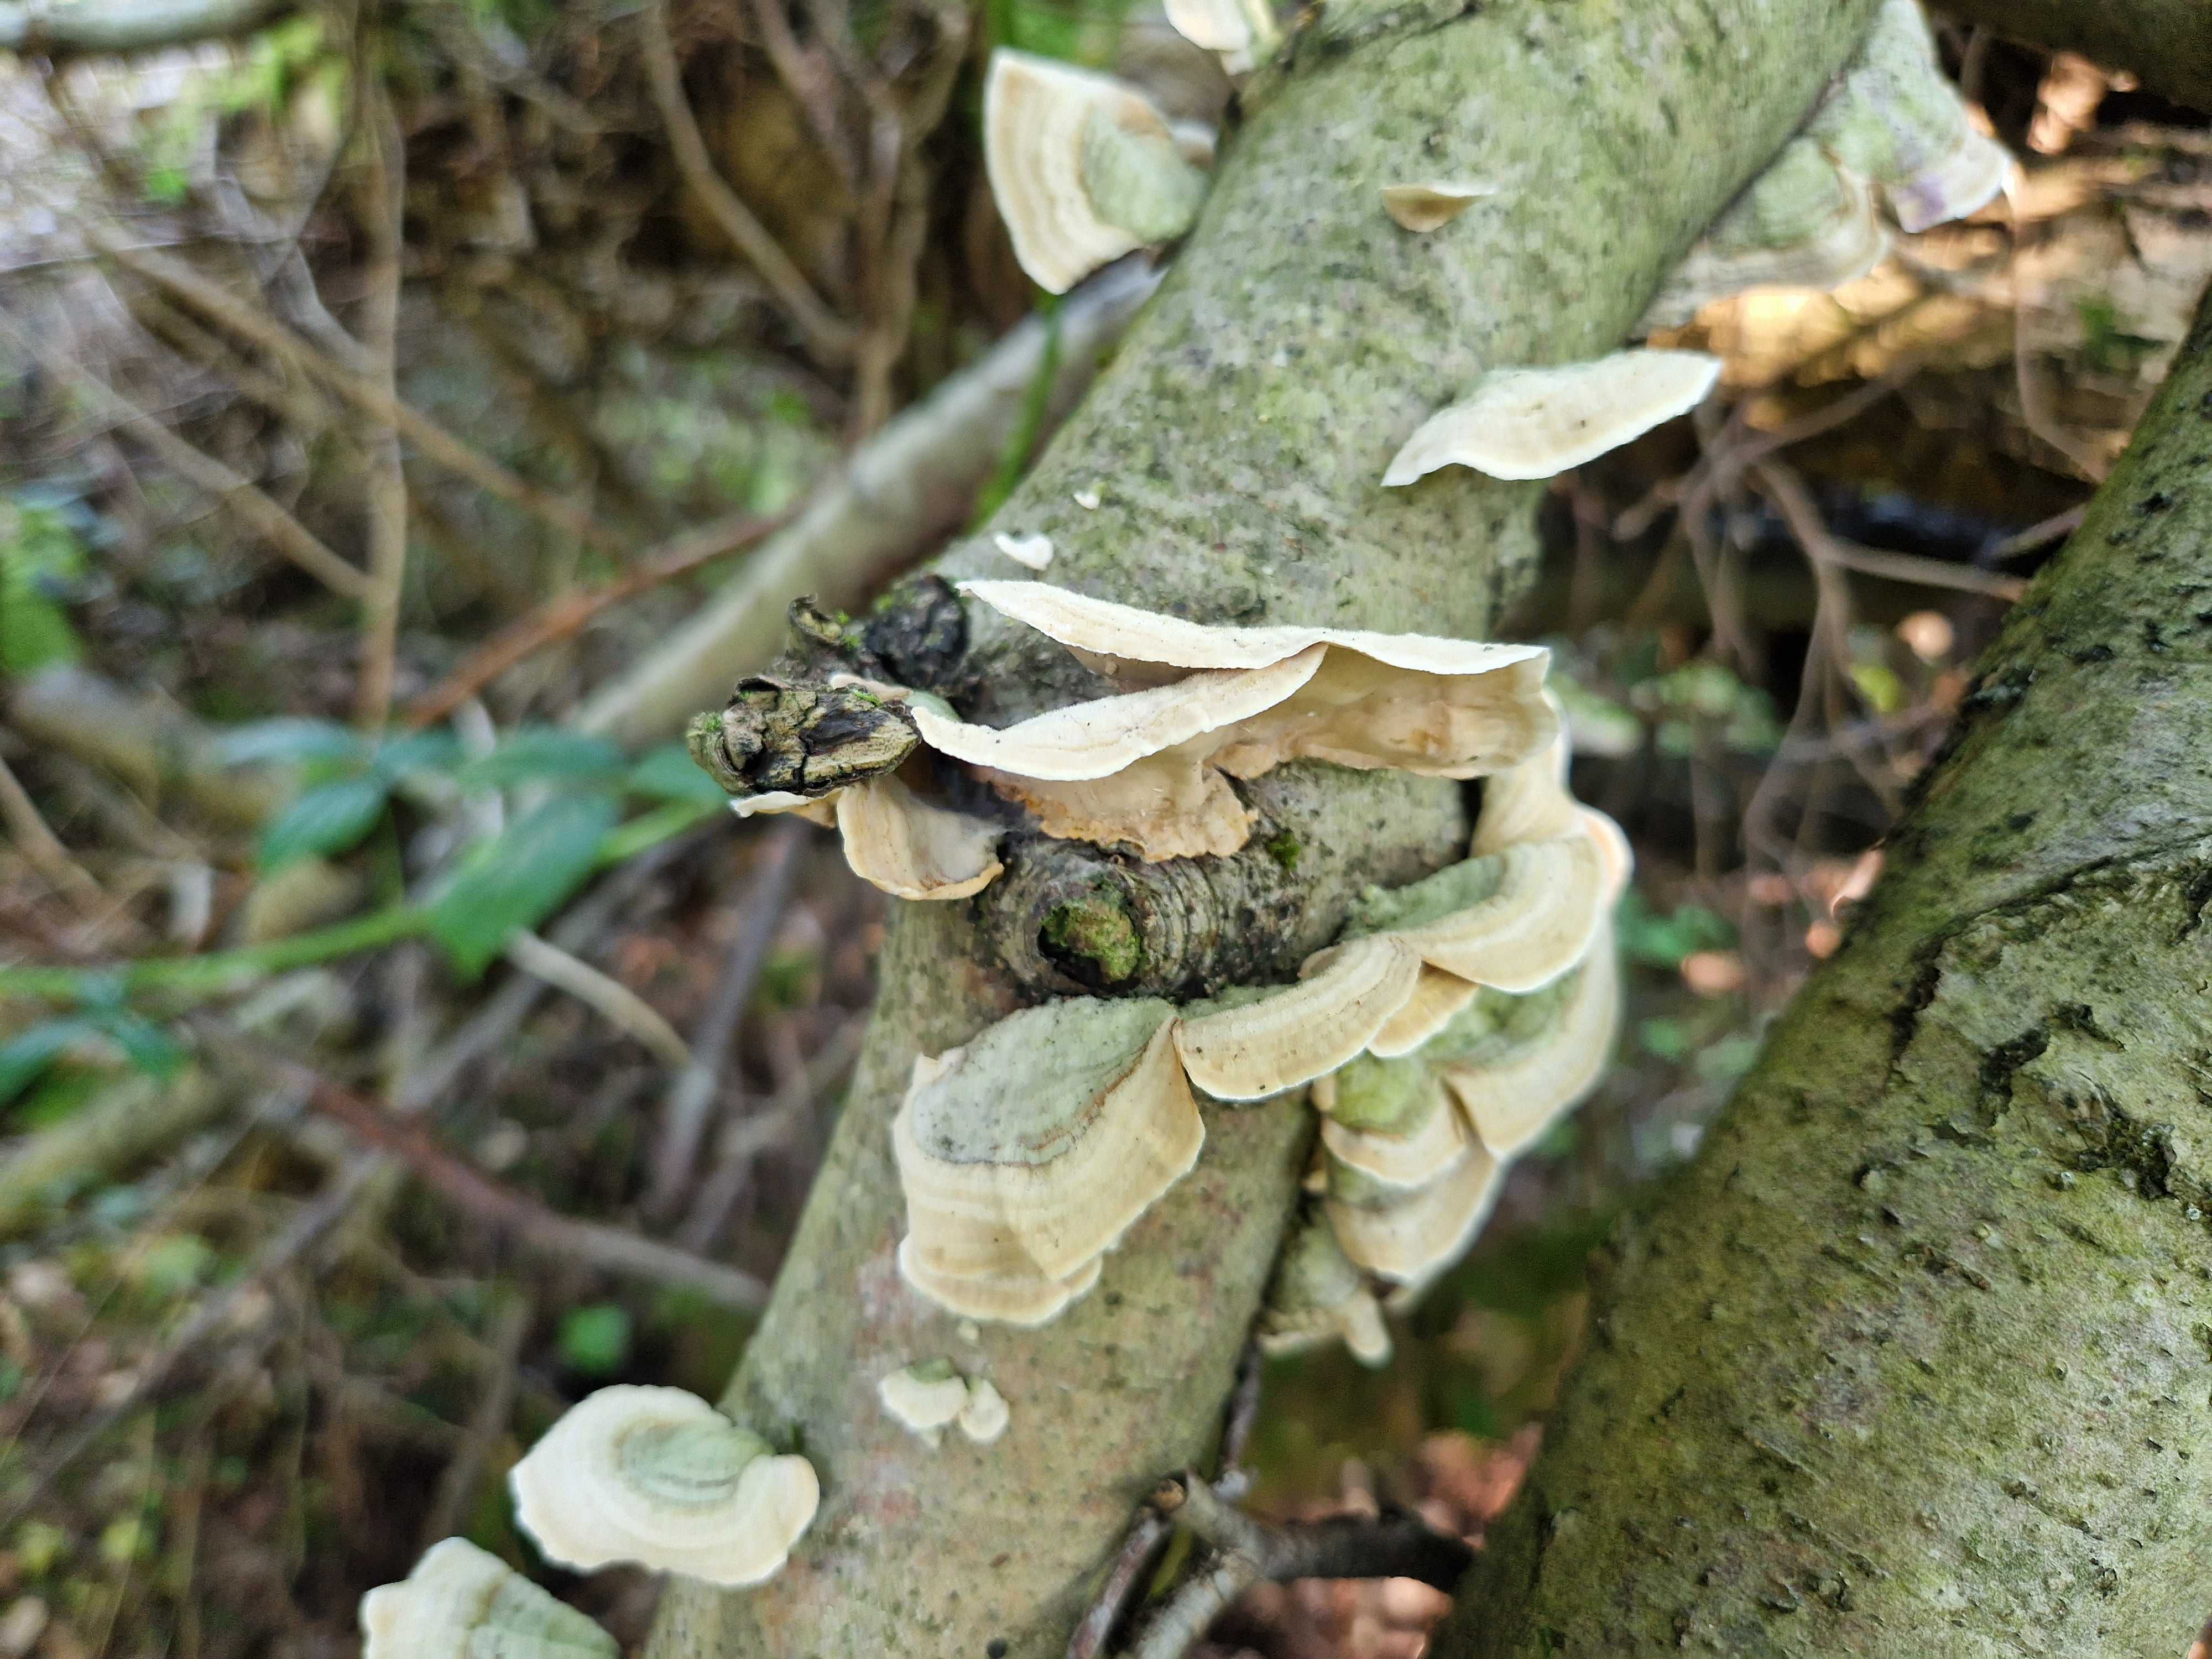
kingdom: Fungi
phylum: Basidiomycota
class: Agaricomycetes
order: Russulales
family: Stereaceae
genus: Stereum
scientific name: Stereum subtomentosum
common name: smuk lædersvamp
